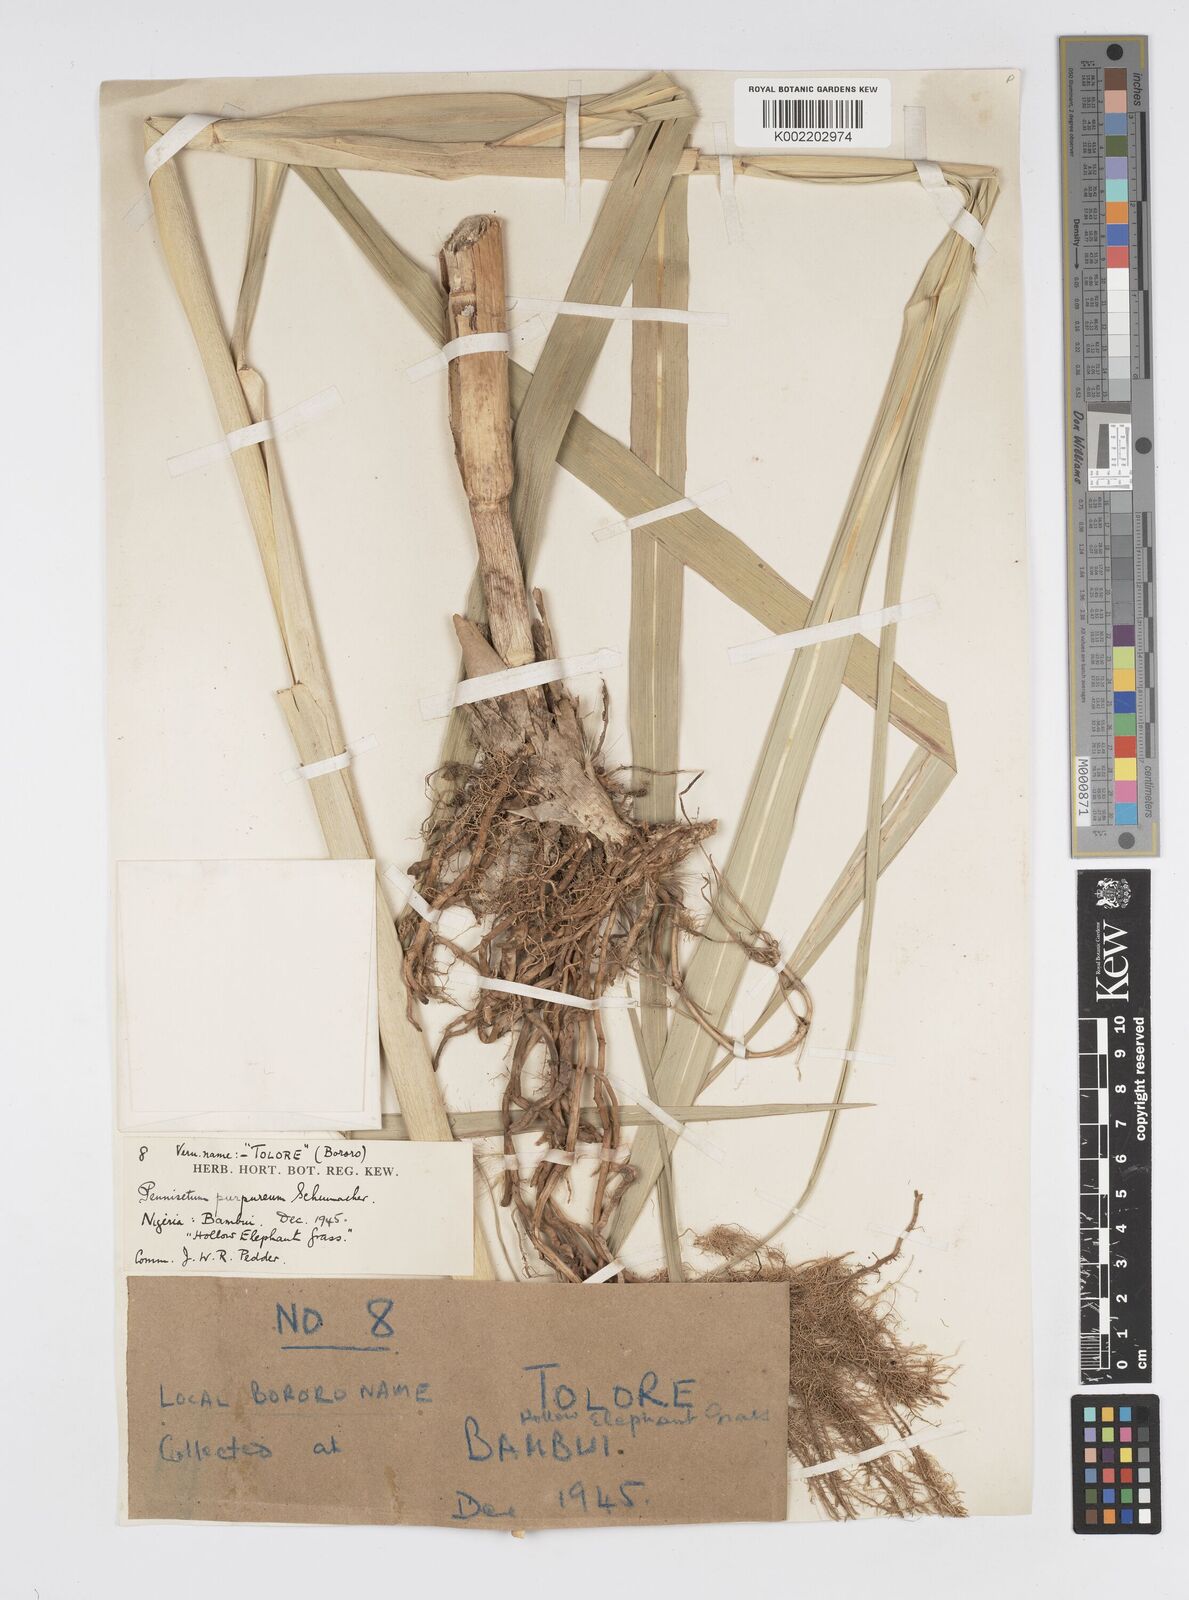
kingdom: Plantae
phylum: Tracheophyta
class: Liliopsida
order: Poales
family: Poaceae
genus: Cenchrus
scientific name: Cenchrus purpureus
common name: Elephant grass
